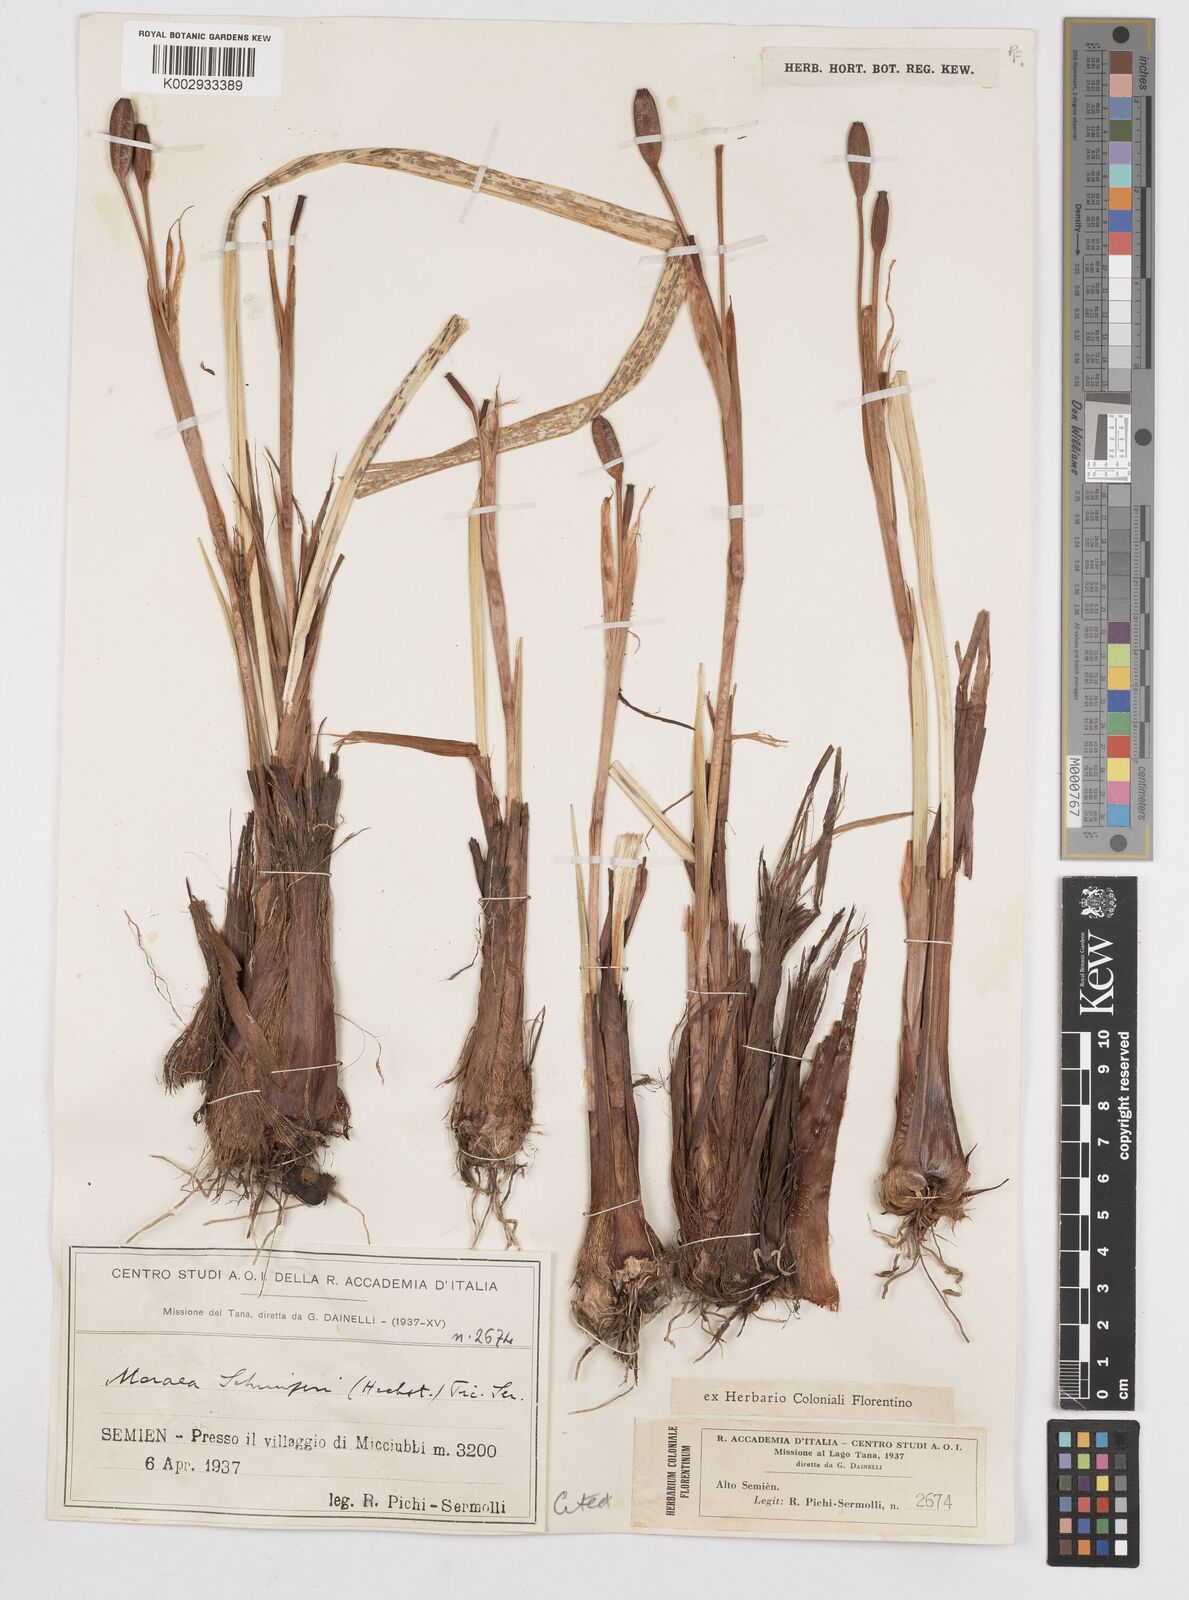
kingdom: Plantae
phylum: Tracheophyta
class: Liliopsida
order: Asparagales
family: Iridaceae
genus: Moraea
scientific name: Moraea schimperi
